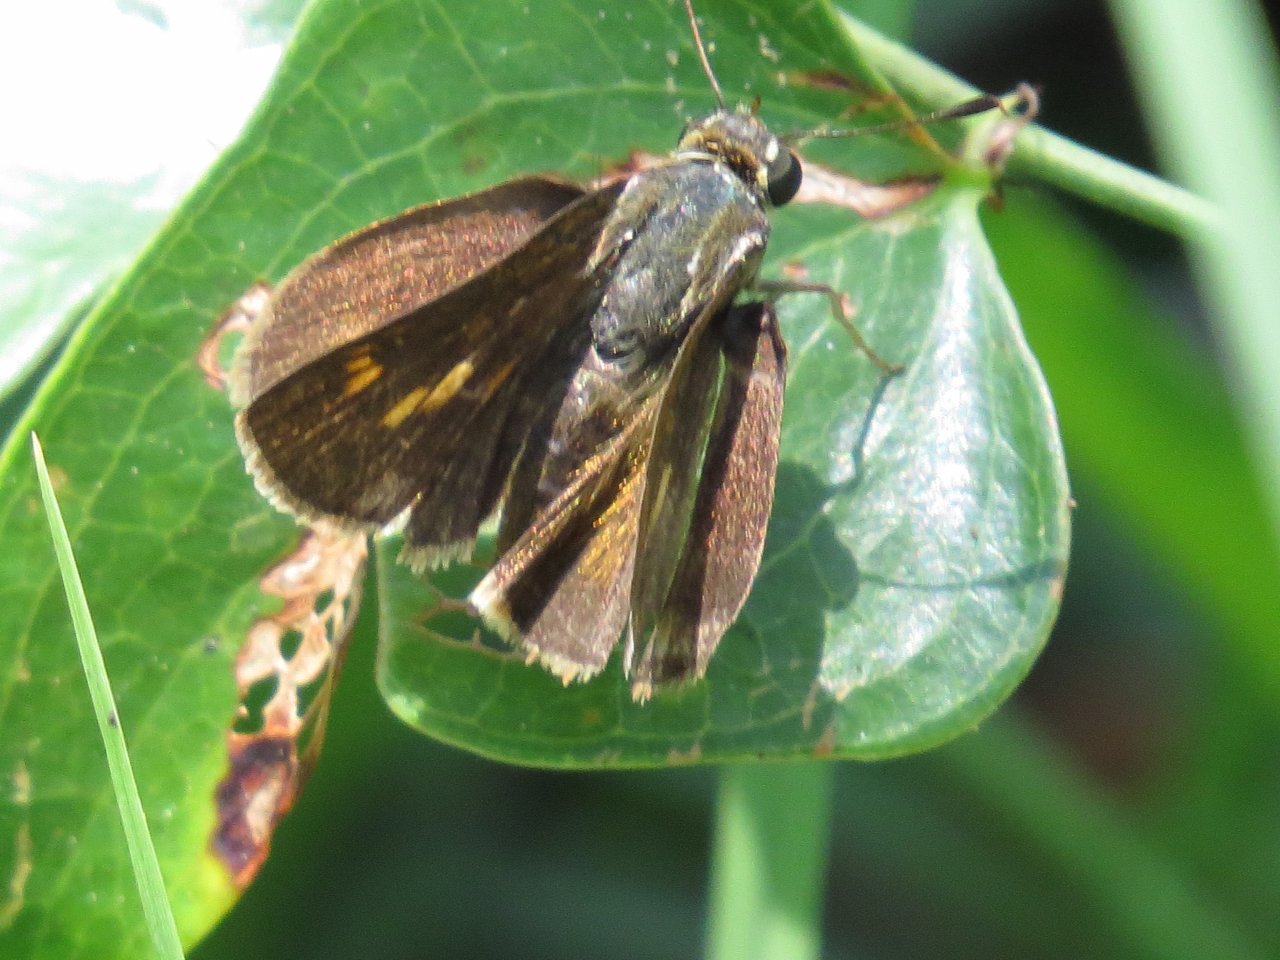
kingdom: Animalia
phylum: Arthropoda
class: Insecta
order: Lepidoptera
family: Hesperiidae
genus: Wallengrenia
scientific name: Wallengrenia otho
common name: Southern Broken-Dash
